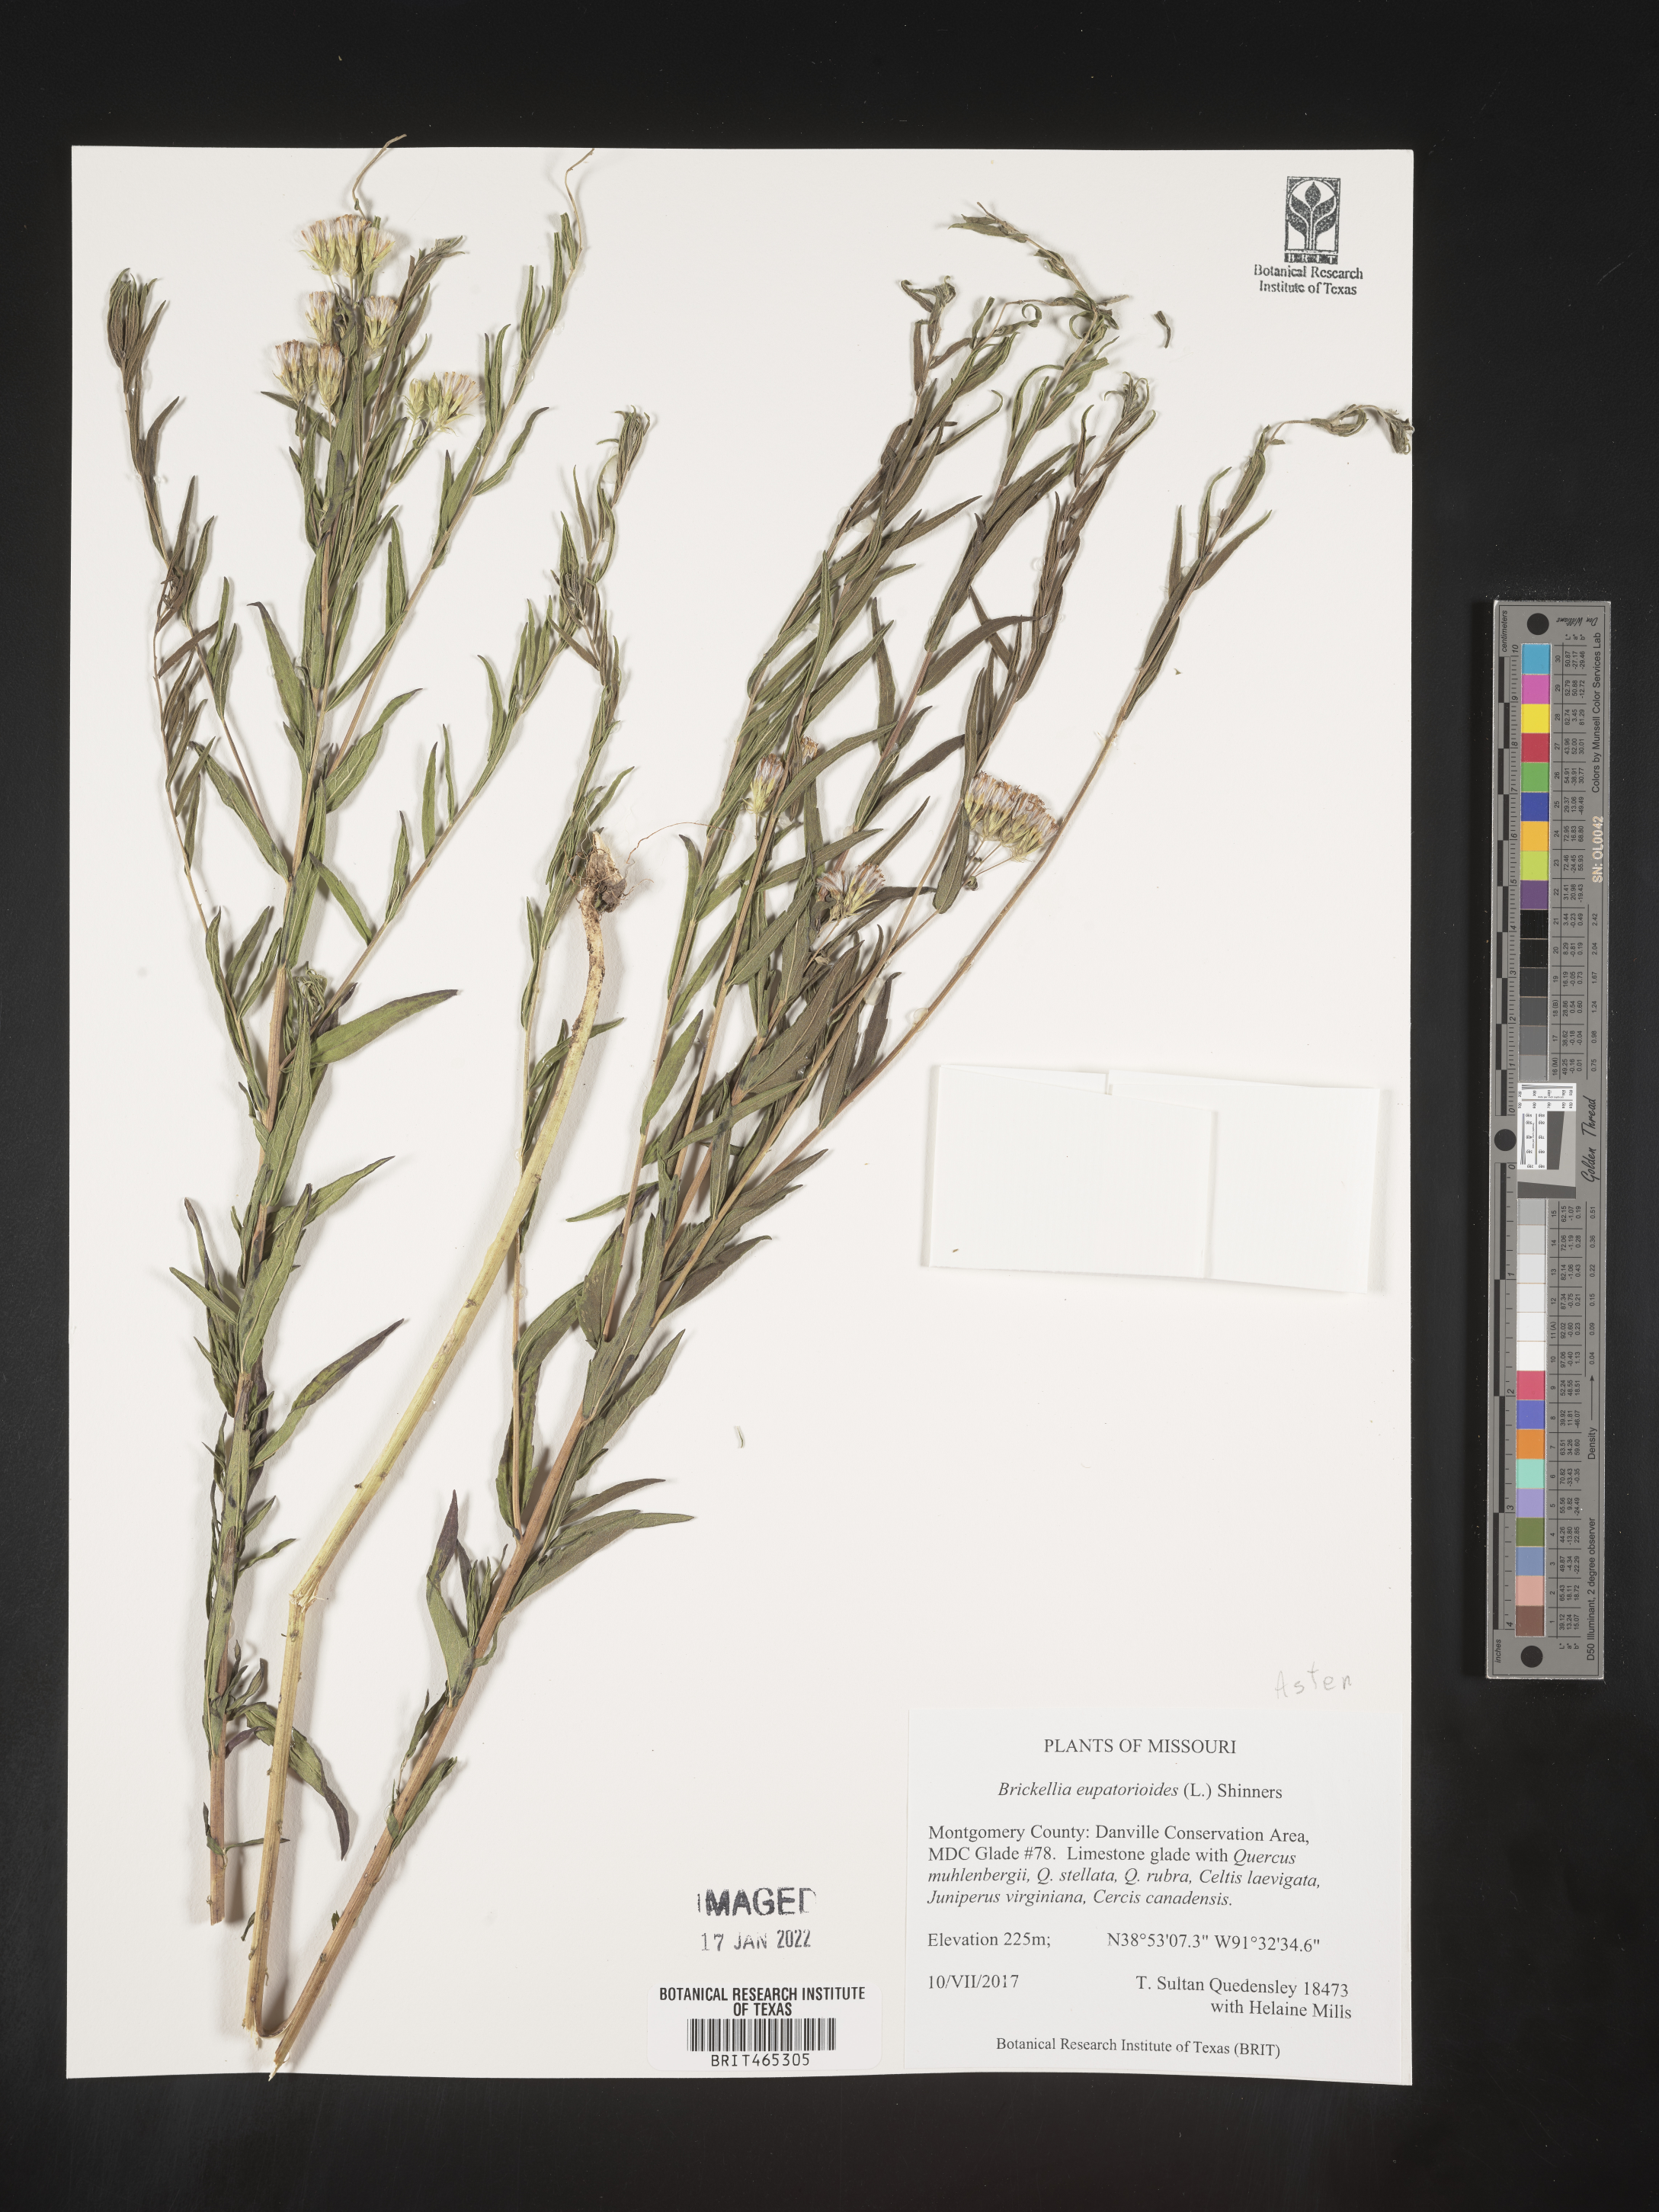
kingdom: Plantae
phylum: Tracheophyta
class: Magnoliopsida
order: Asterales
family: Asteraceae
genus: Brickellia
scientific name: Brickellia eupatorioides
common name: False boneset
